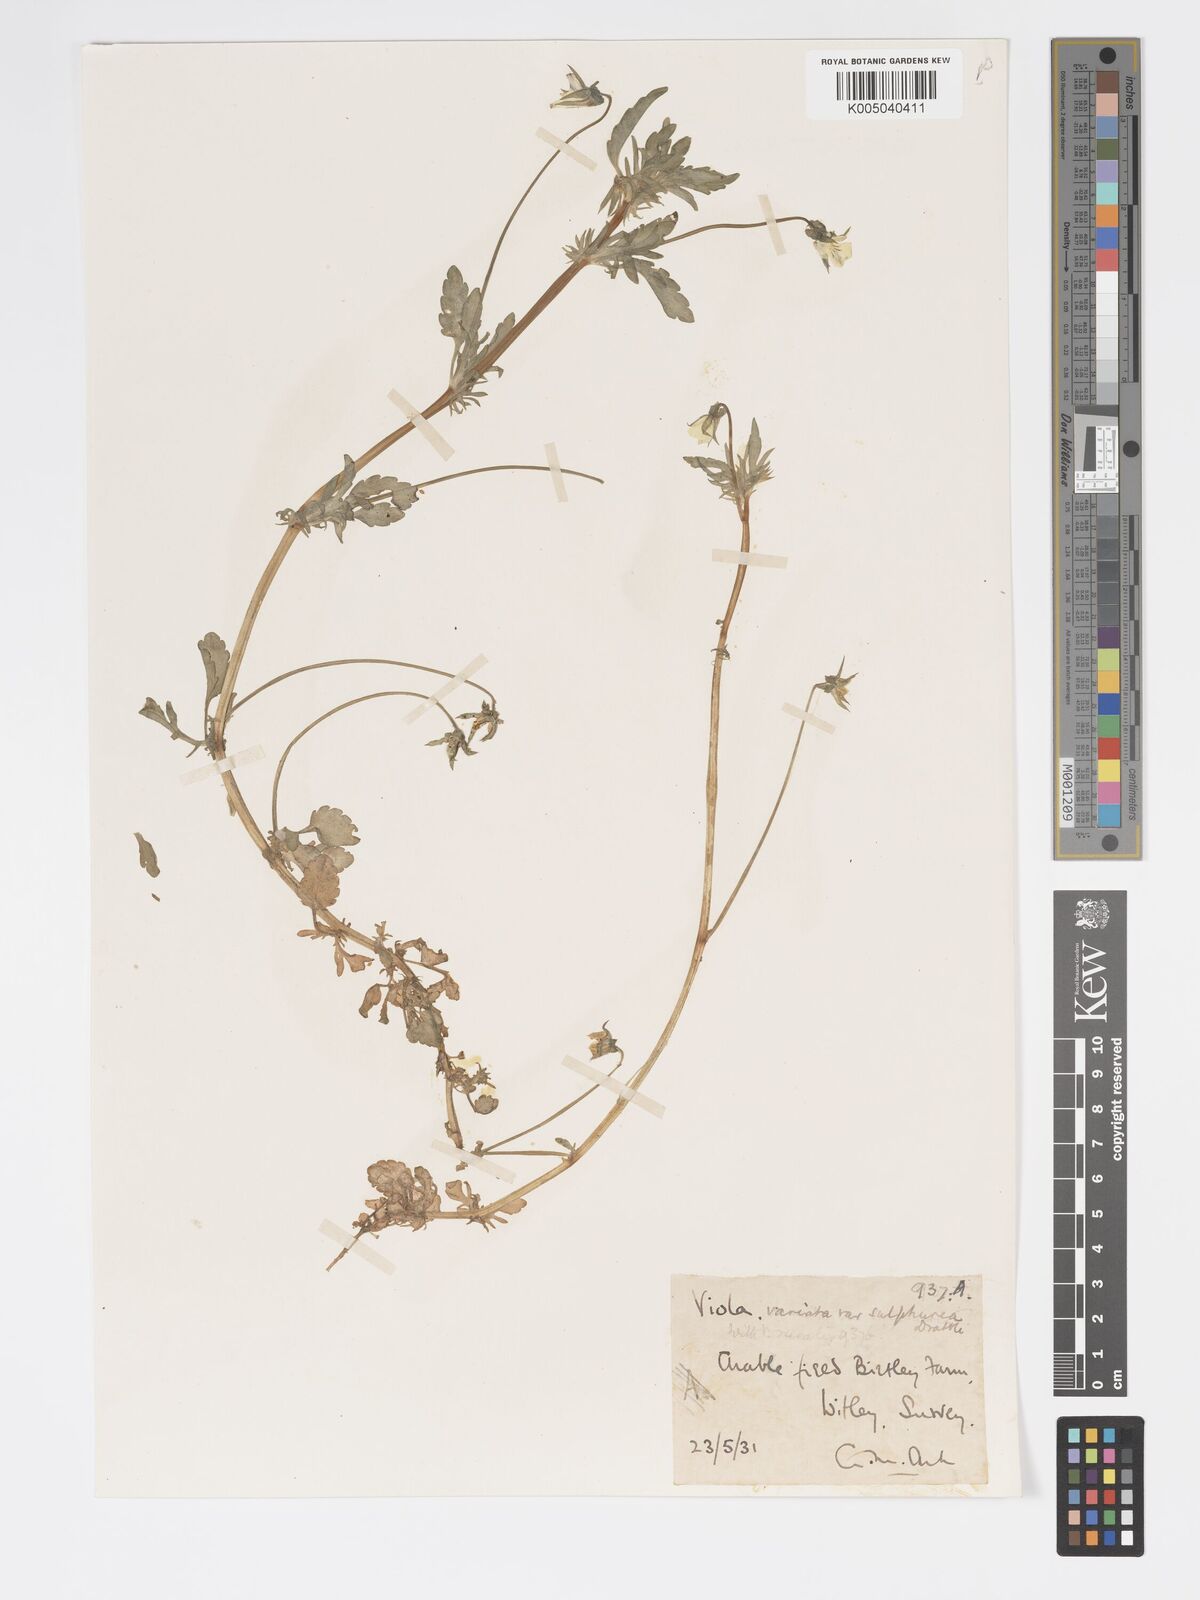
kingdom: Plantae
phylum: Tracheophyta
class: Magnoliopsida
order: Malpighiales
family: Violaceae
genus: Viola
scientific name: Viola arvensis
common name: Field pansy
